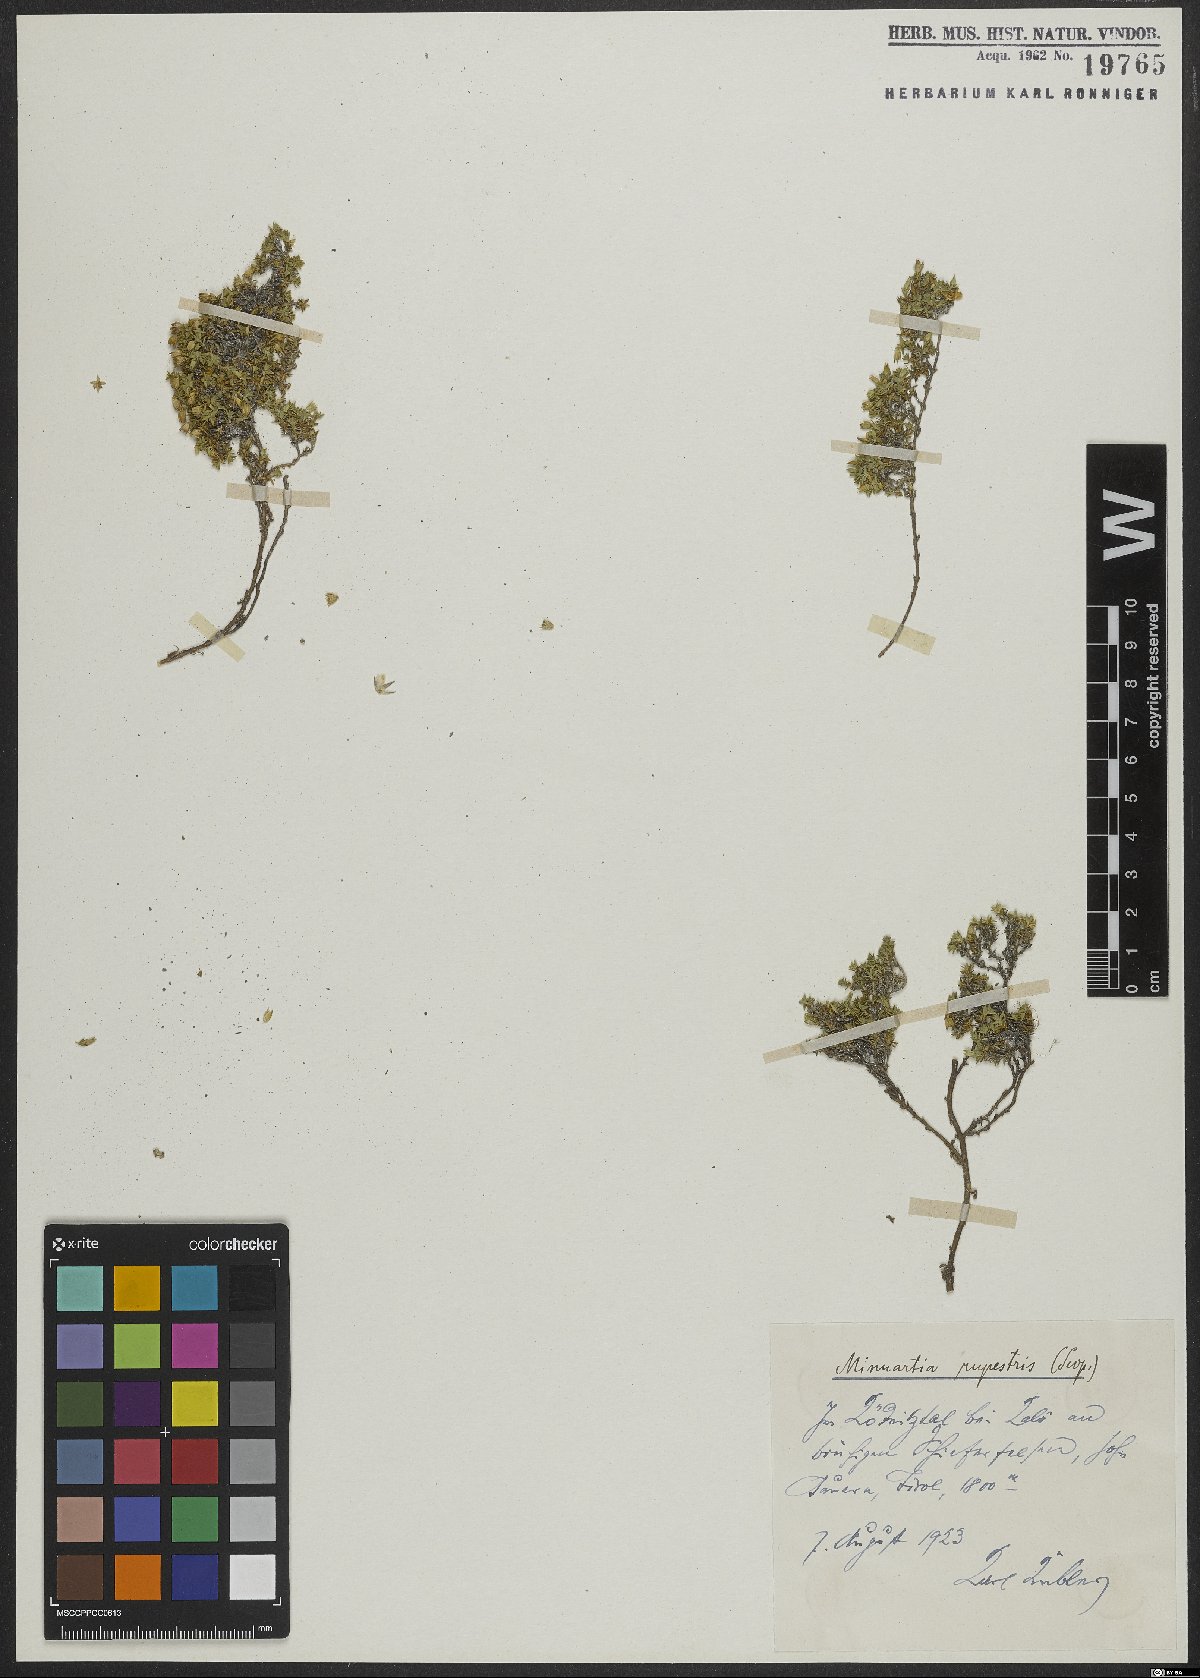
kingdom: Plantae
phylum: Tracheophyta
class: Magnoliopsida
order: Caryophyllales
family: Caryophyllaceae
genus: Facchinia
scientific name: Facchinia rupestris
